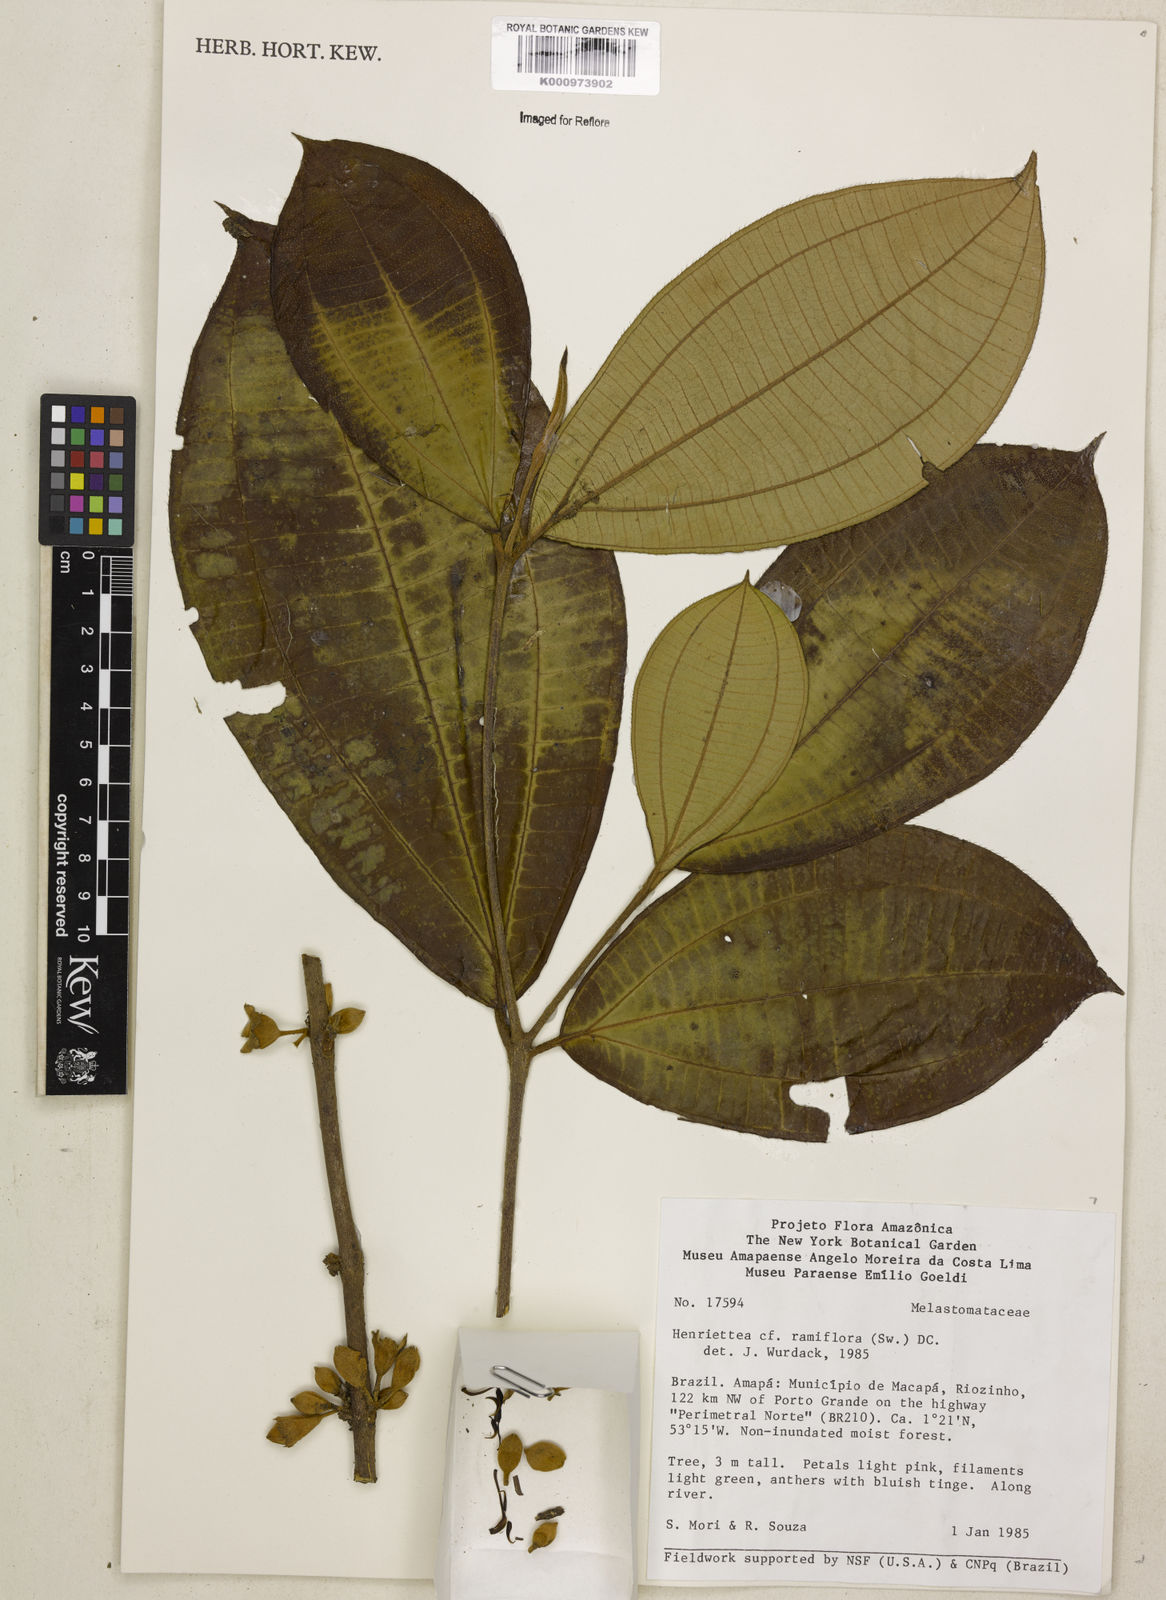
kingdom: Plantae
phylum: Tracheophyta
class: Magnoliopsida
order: Myrtales
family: Melastomataceae
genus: Henriettea
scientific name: Henriettea ramiflora
